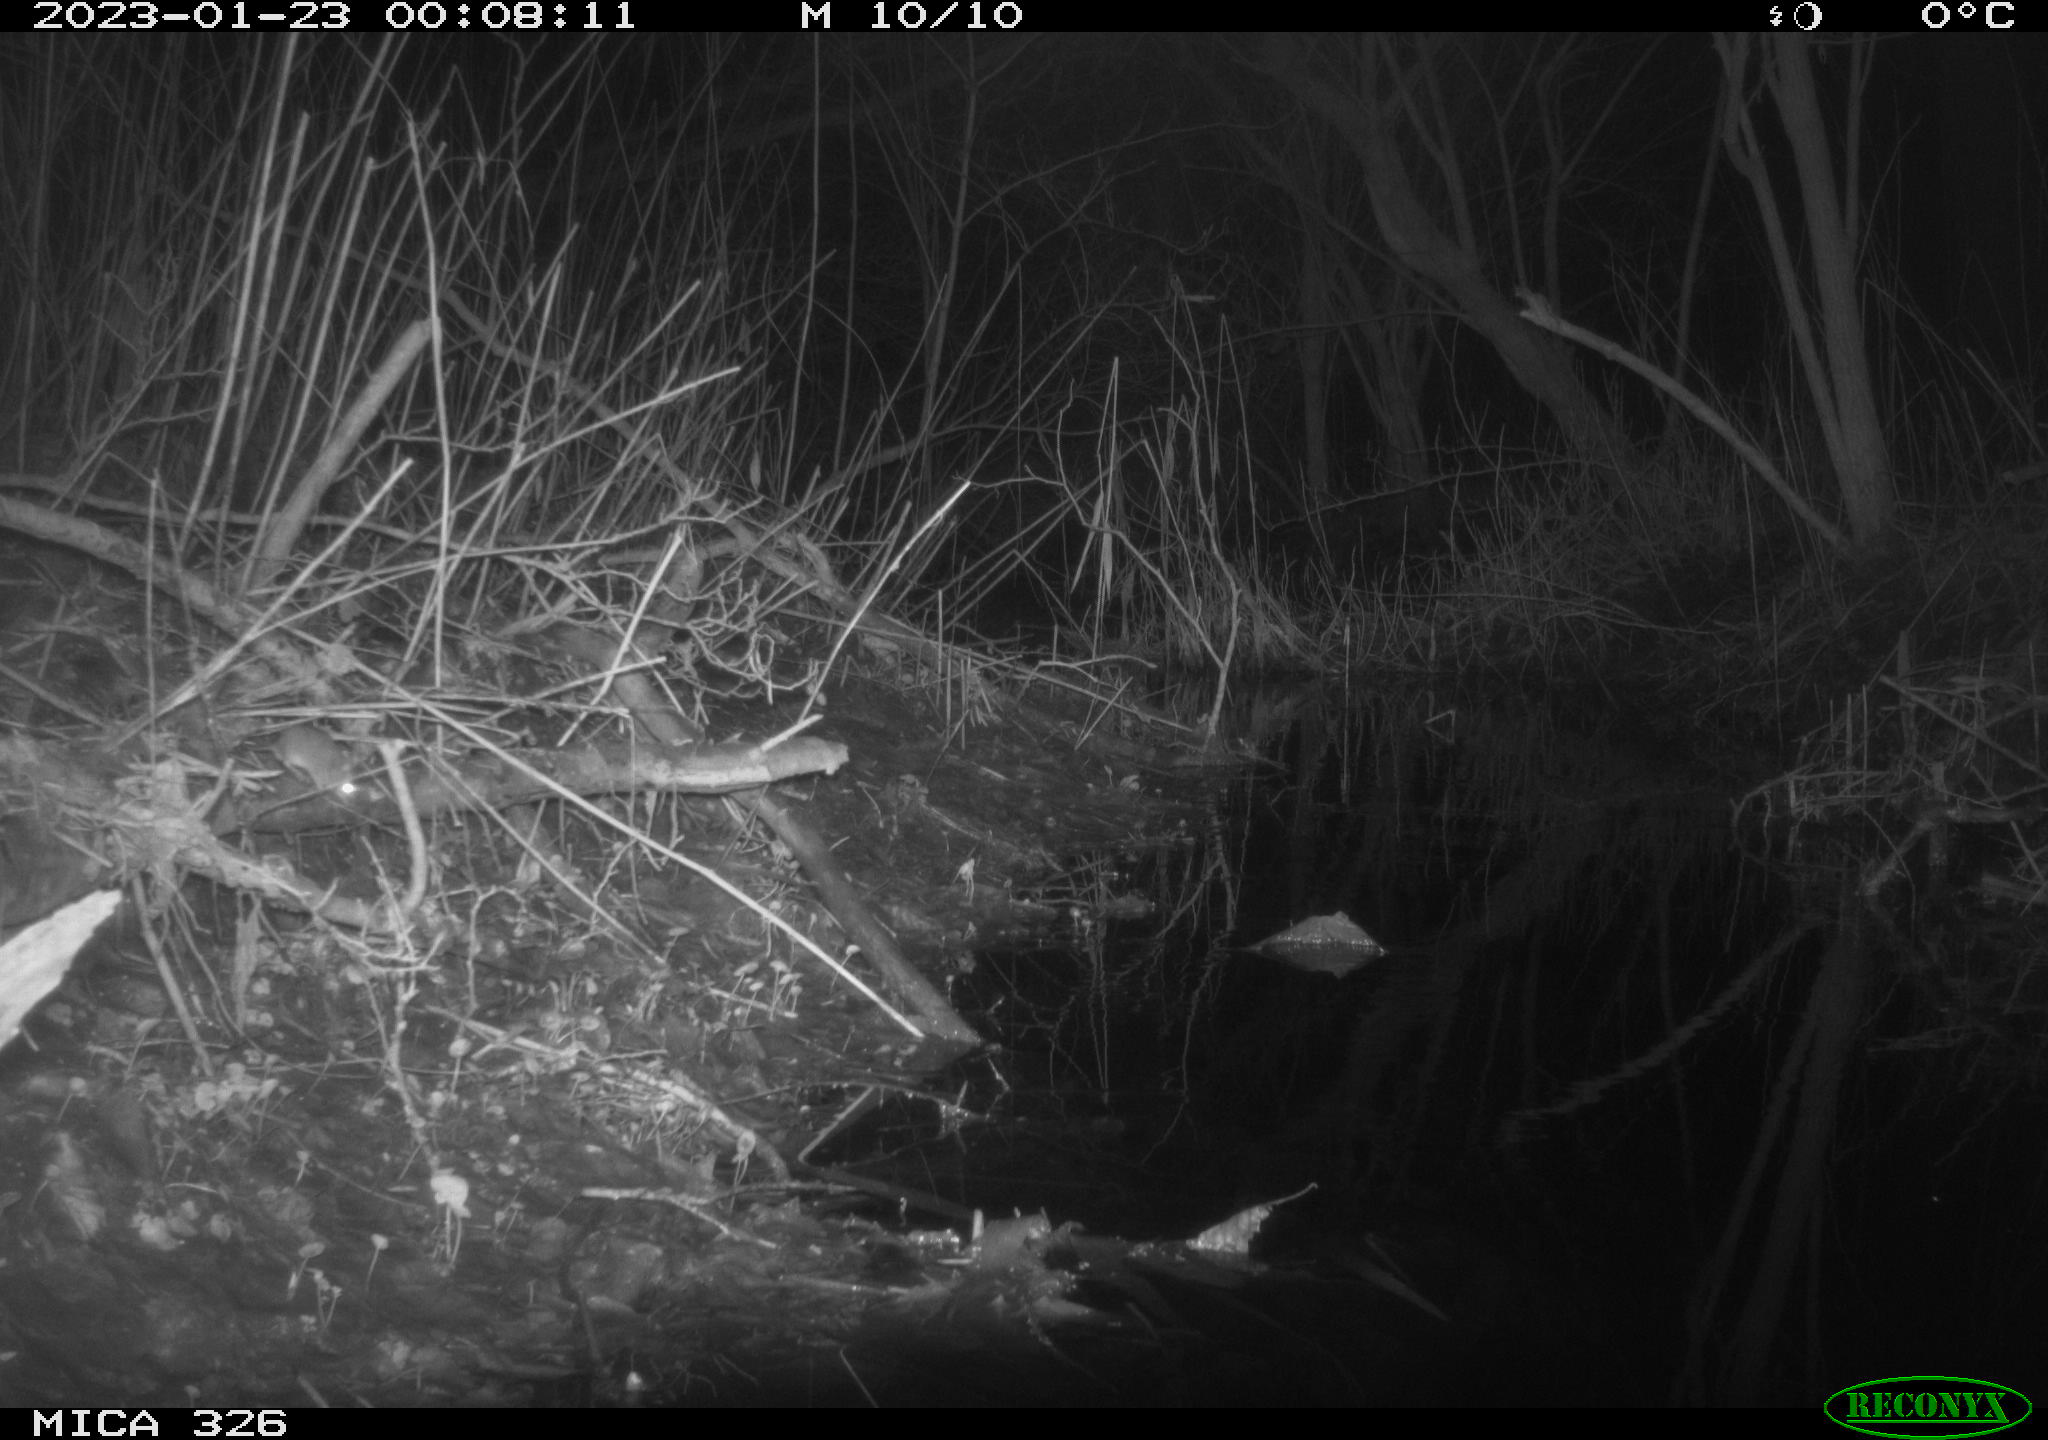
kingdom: Animalia
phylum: Chordata
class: Mammalia
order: Rodentia
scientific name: Rodentia
